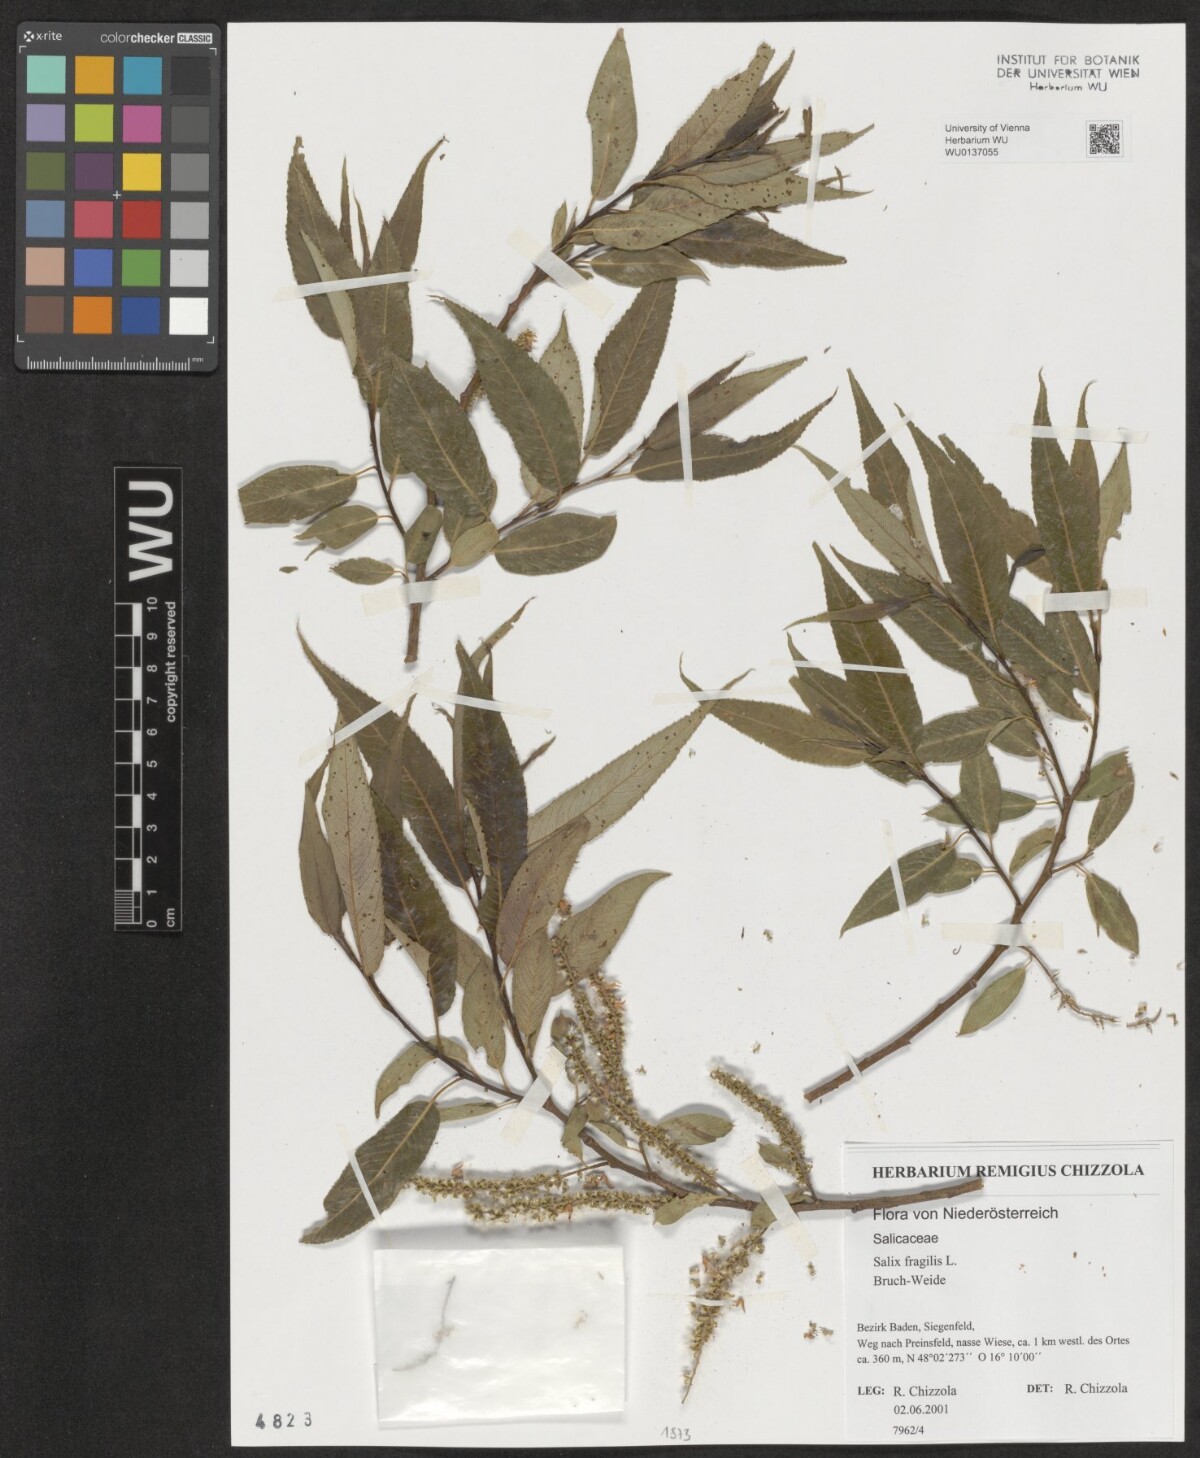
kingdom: Plantae
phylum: Tracheophyta
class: Magnoliopsida
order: Malpighiales
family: Salicaceae
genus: Salix
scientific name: Salix fragilis
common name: Crack willow
